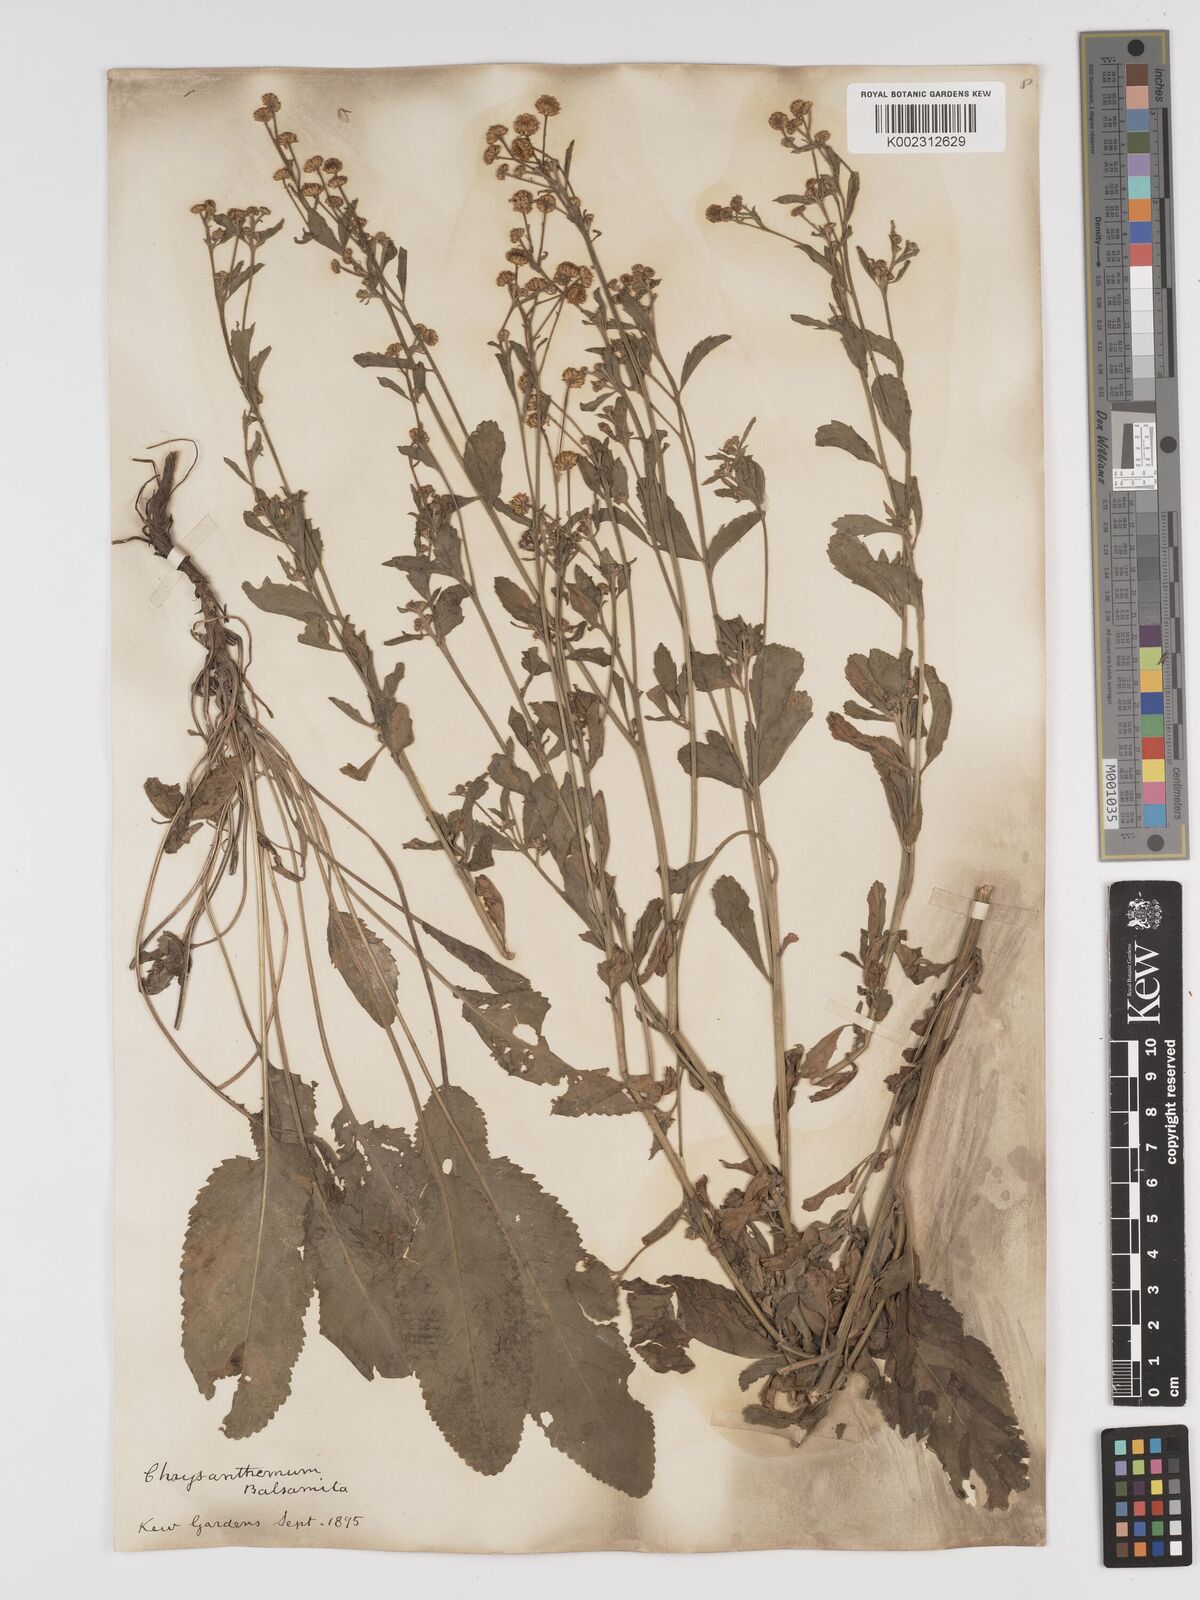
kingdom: Plantae
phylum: Tracheophyta
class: Magnoliopsida
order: Asterales
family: Asteraceae
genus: Tanacetum
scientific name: Tanacetum balsamita
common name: Costmary
